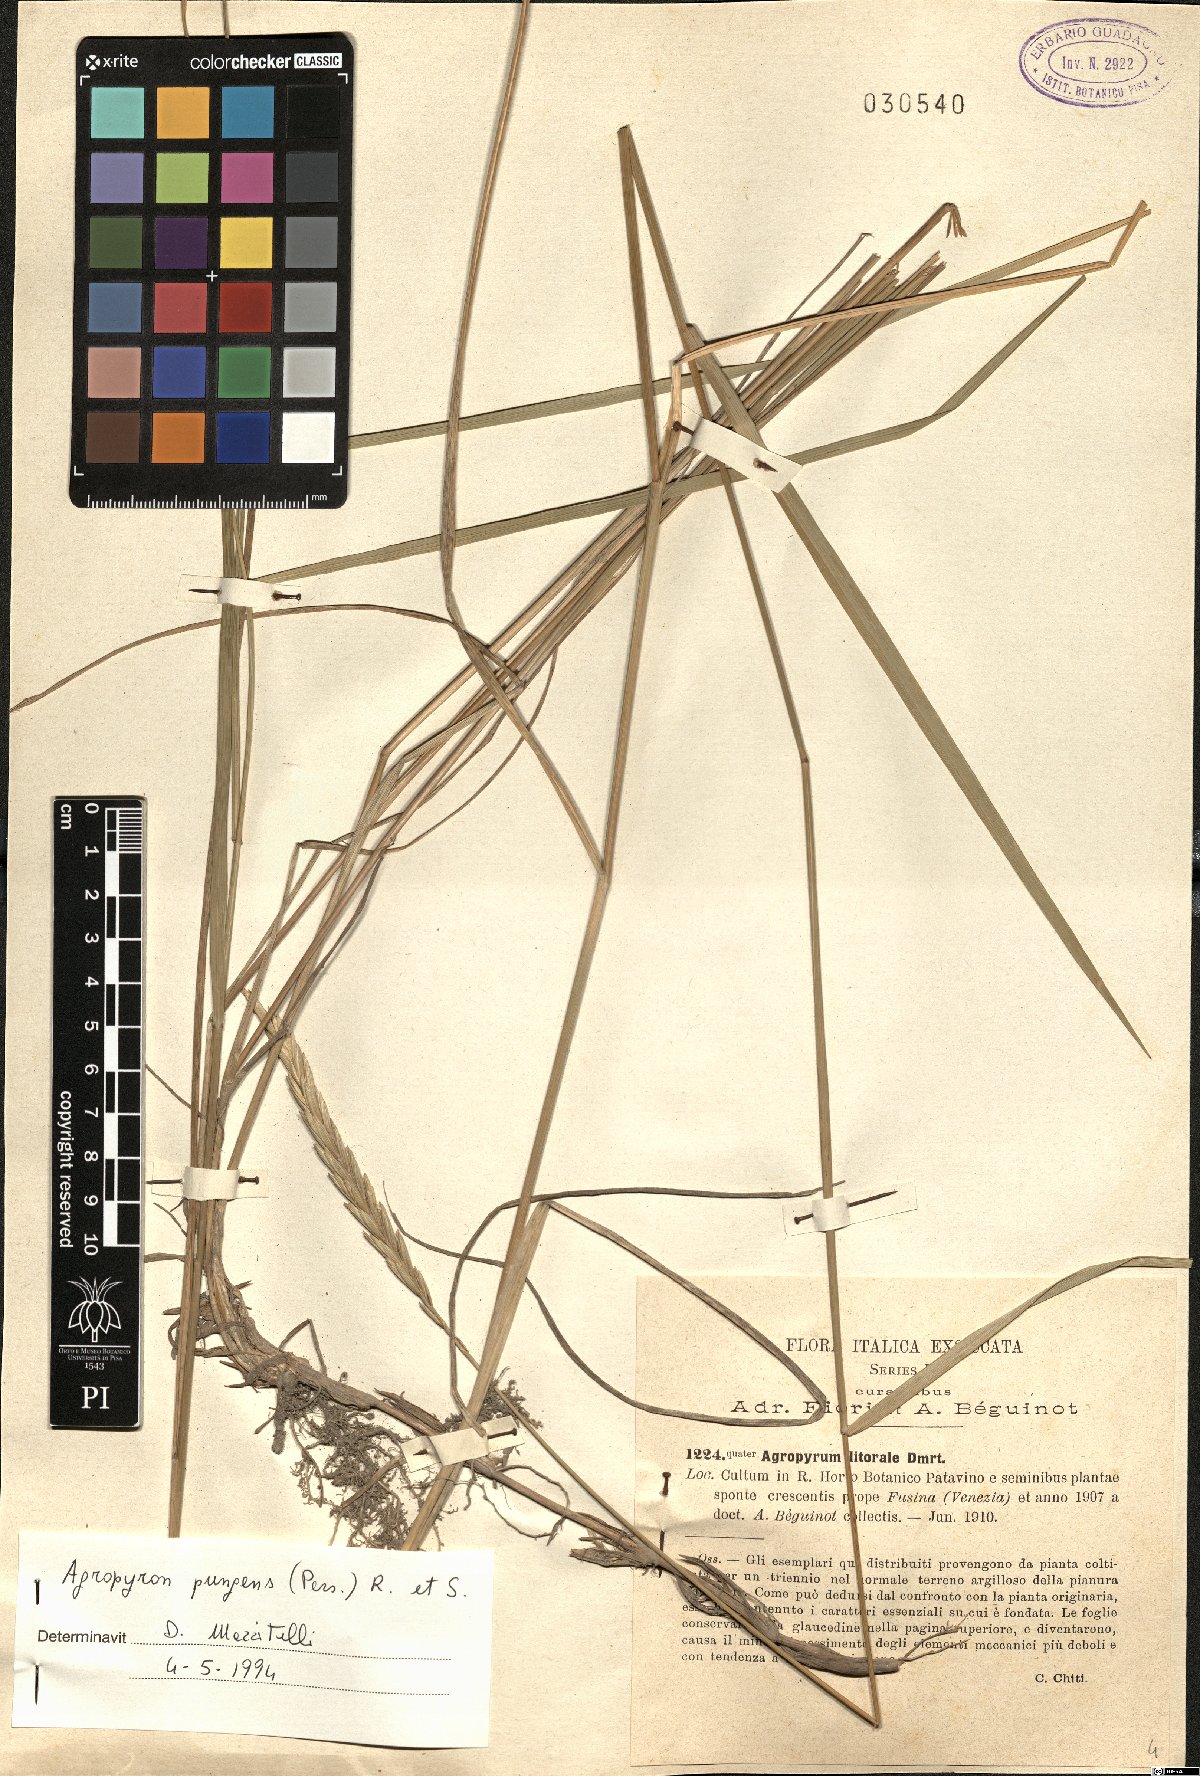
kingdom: Plantae
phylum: Tracheophyta
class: Liliopsida
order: Poales
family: Poaceae
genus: Elymus
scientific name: Elymus pungens
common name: Sea couch
